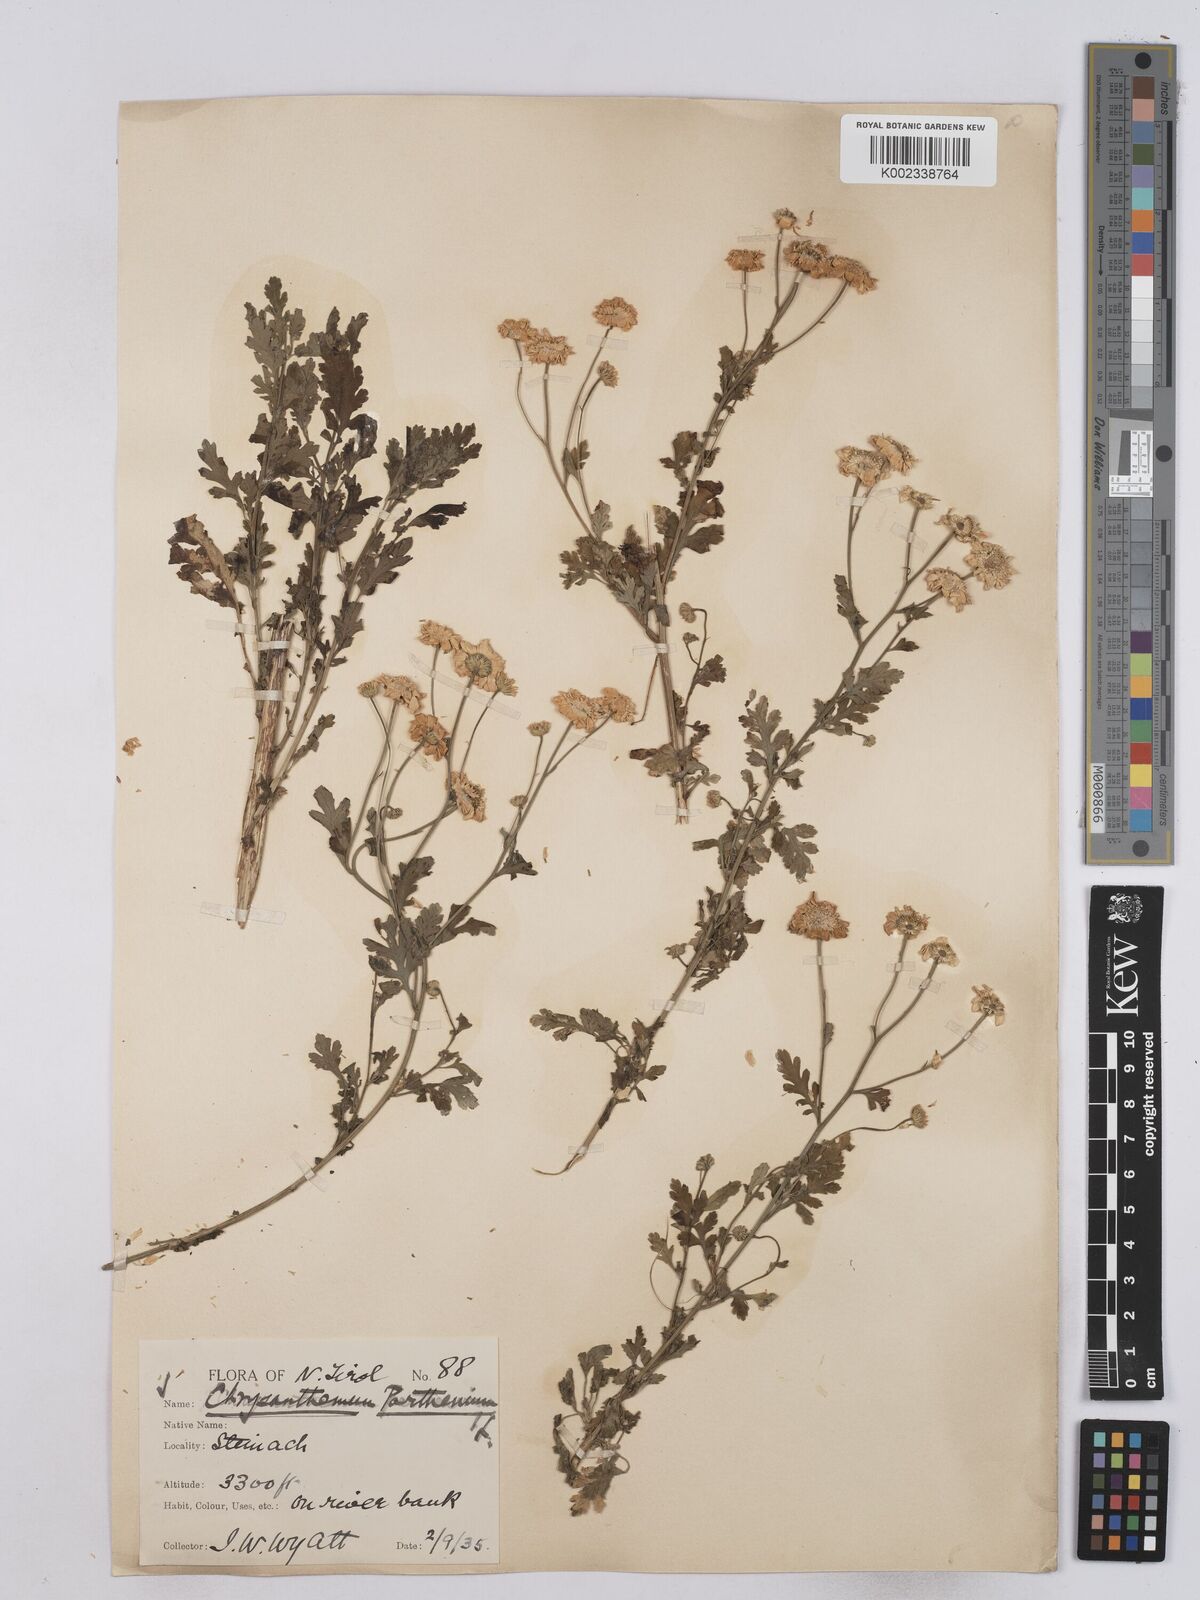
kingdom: Plantae
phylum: Tracheophyta
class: Magnoliopsida
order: Asterales
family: Asteraceae
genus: Tanacetum
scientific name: Tanacetum parthenium
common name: Feverfew
